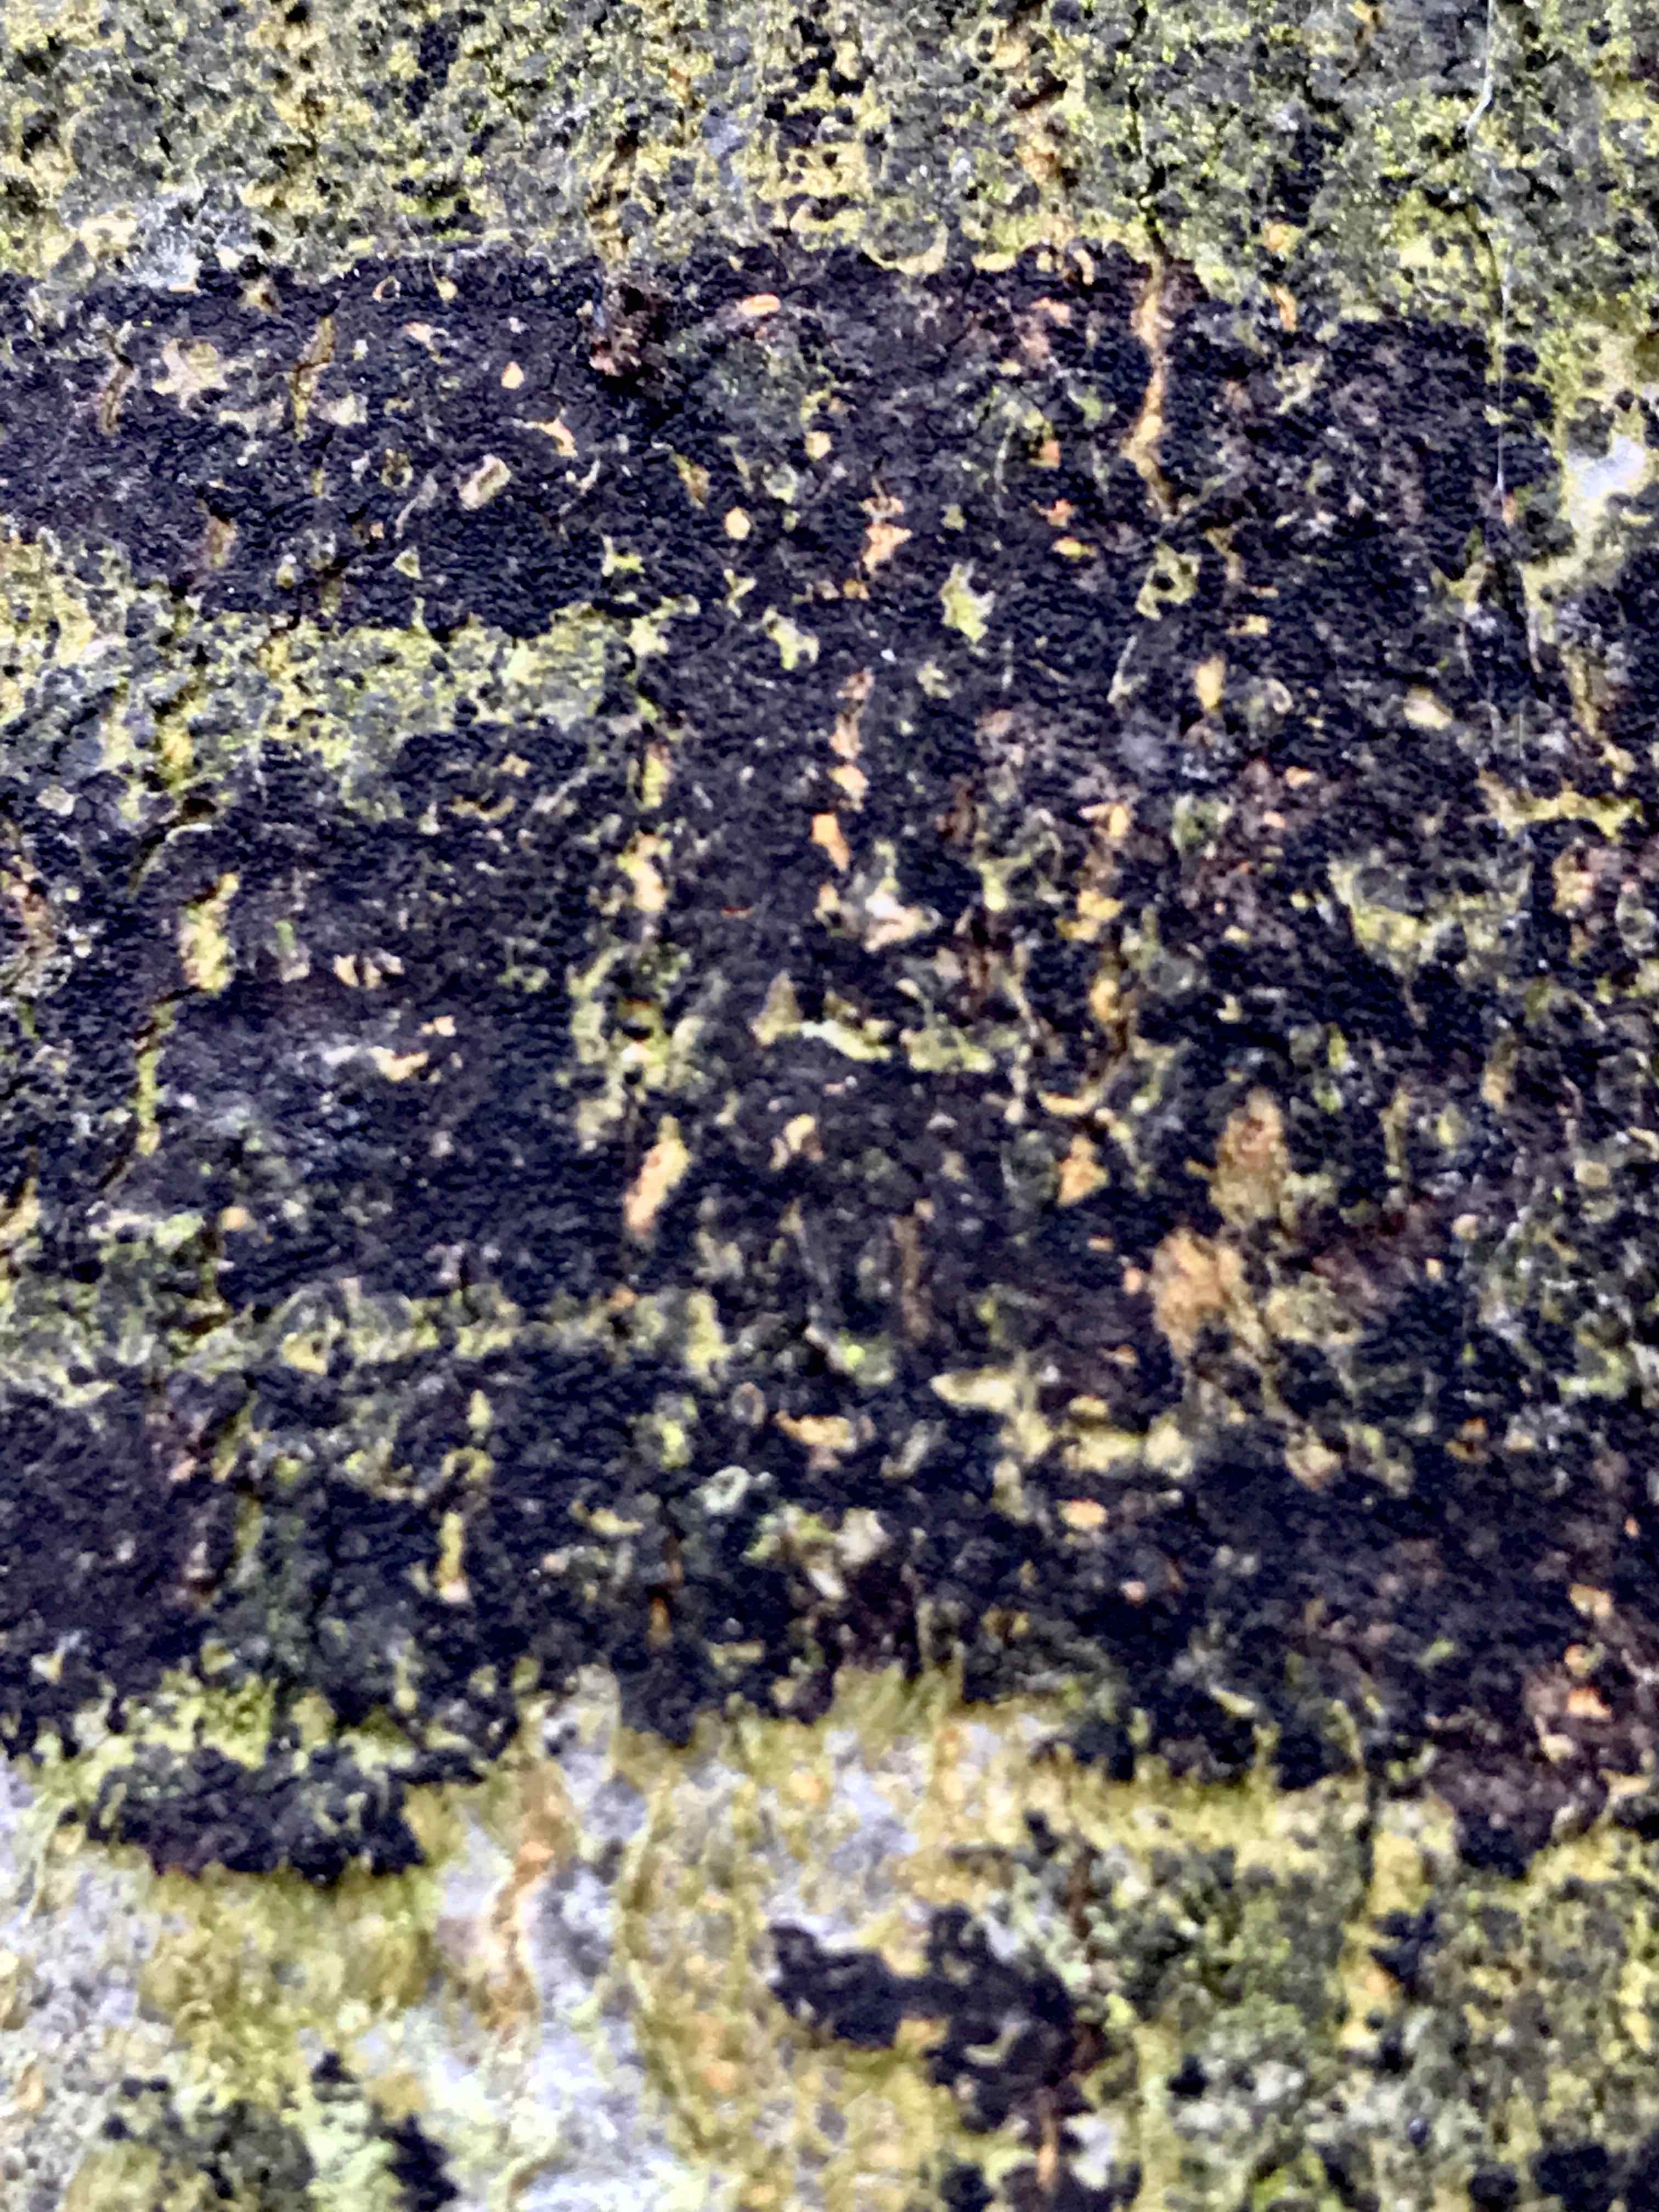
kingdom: Fungi
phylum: Ascomycota
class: Leotiomycetes
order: Rhytismatales
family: Ascodichaenaceae
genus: Ascodichaena
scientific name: Ascodichaena rugosa
